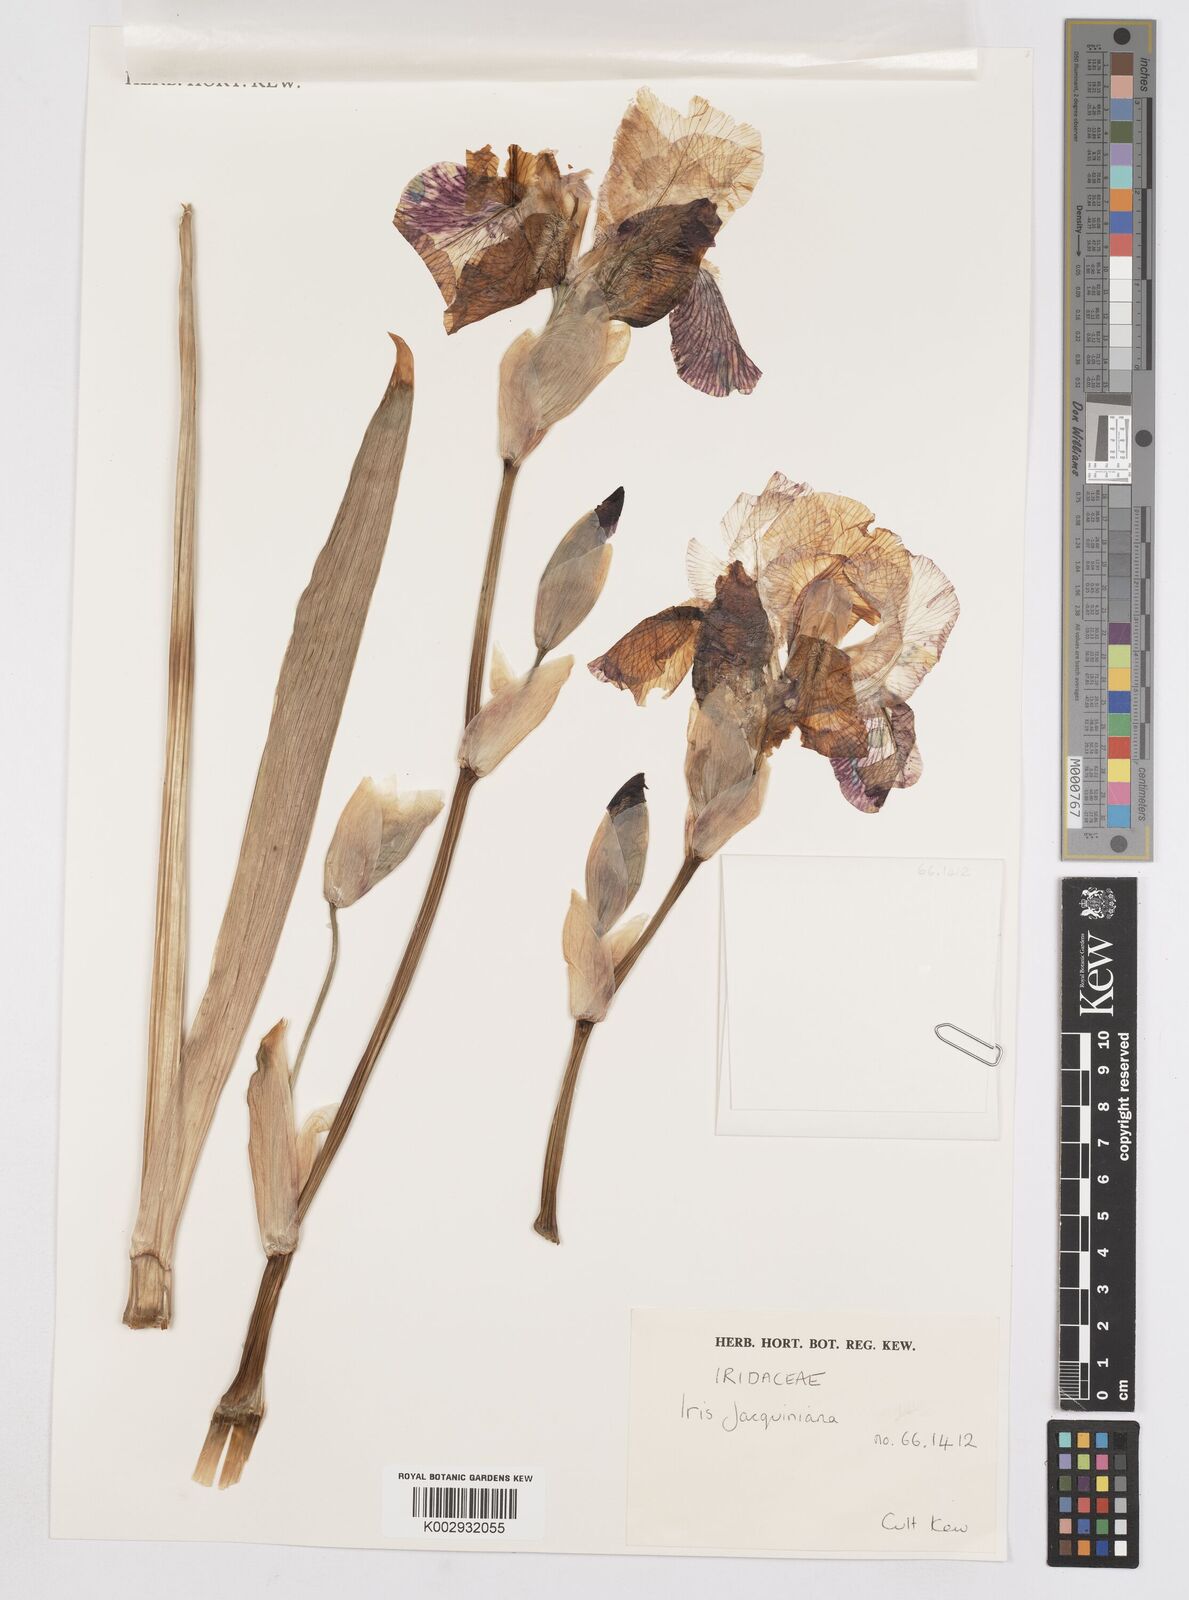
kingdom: Plantae
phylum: Tracheophyta
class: Liliopsida
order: Asparagales
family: Iridaceae
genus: Iris
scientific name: Iris
